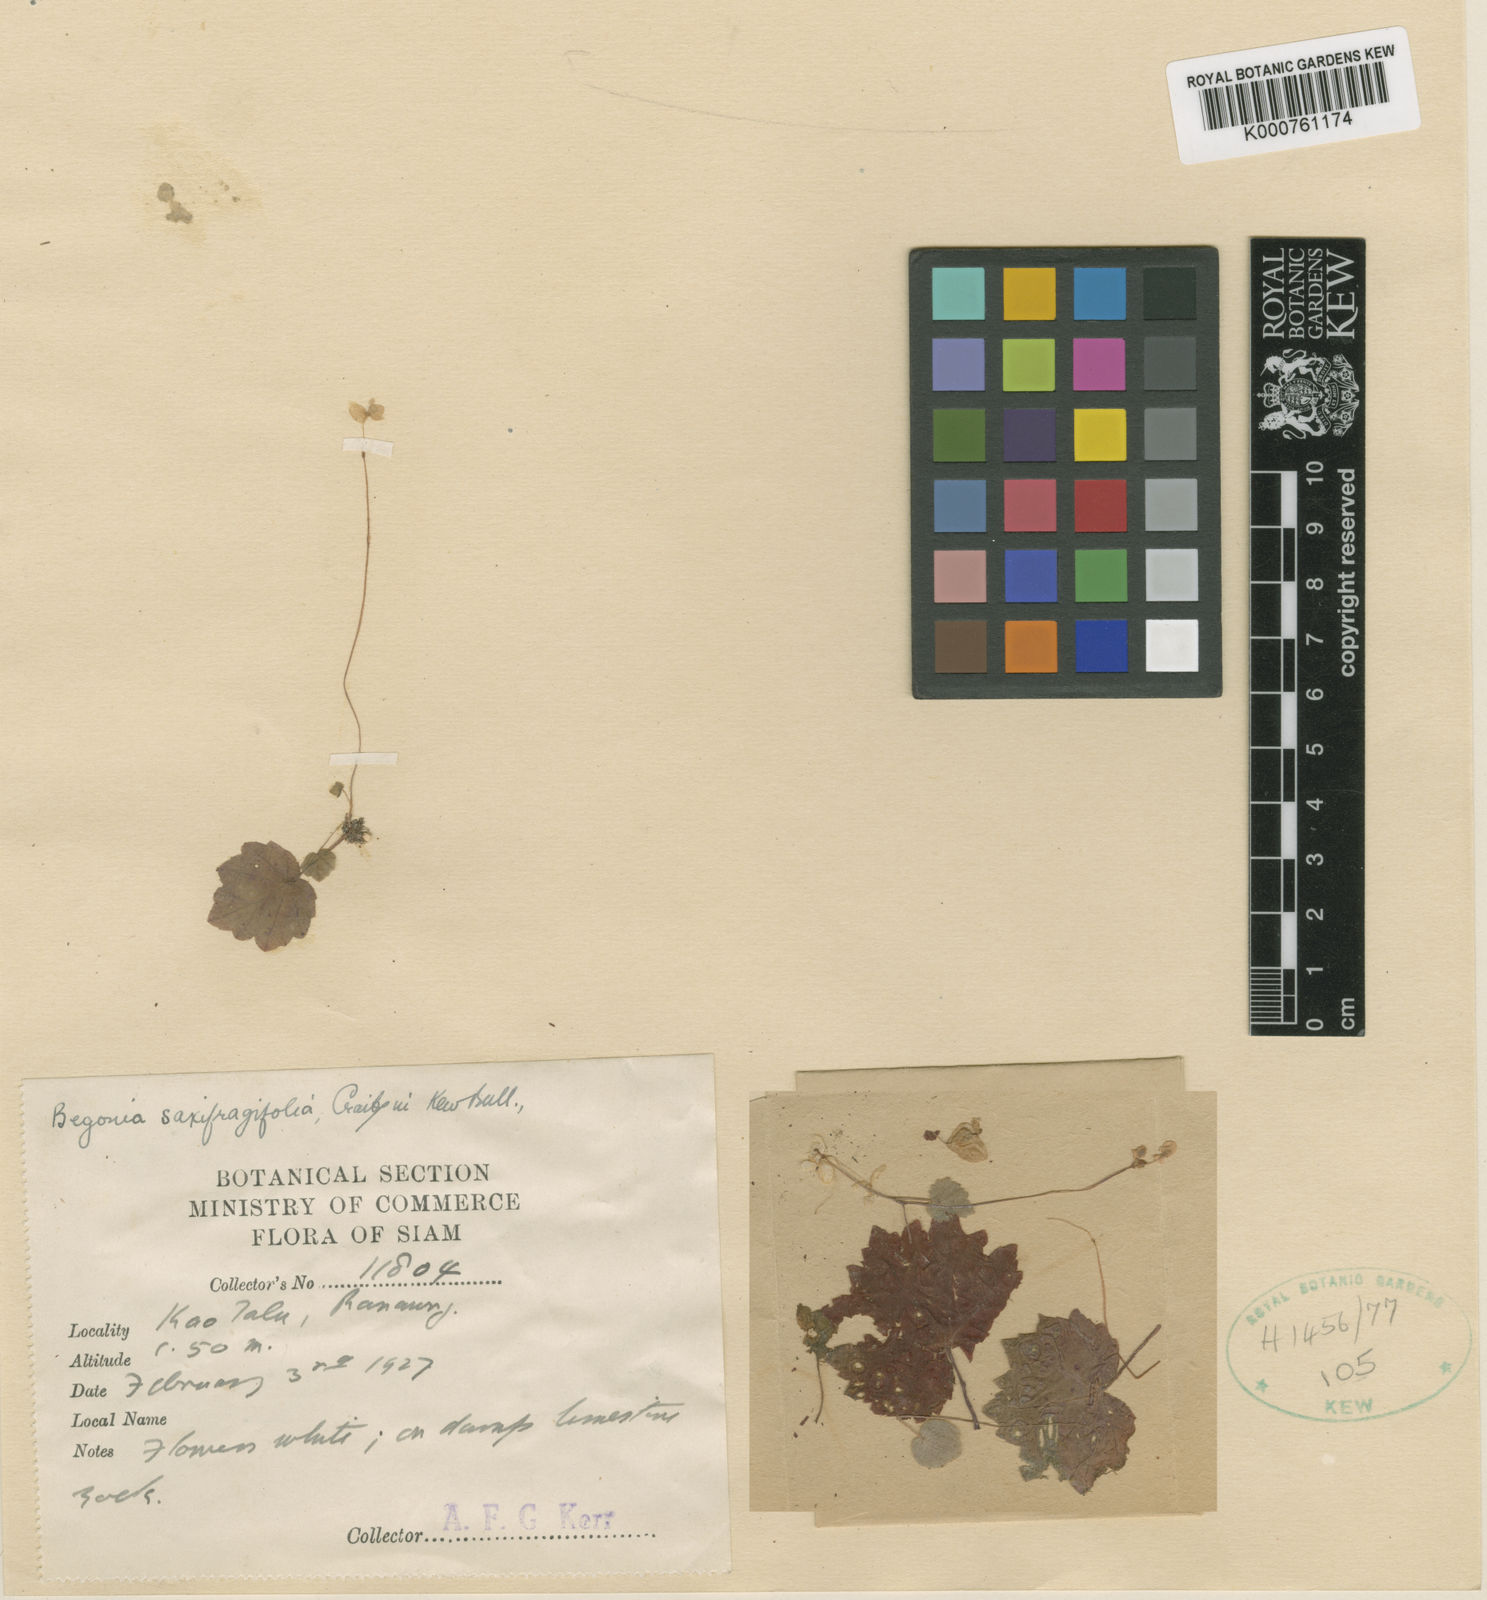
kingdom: Plantae
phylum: Tracheophyta
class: Magnoliopsida
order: Cucurbitales
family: Begoniaceae
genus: Begonia
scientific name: Begonia saxifragifolia
